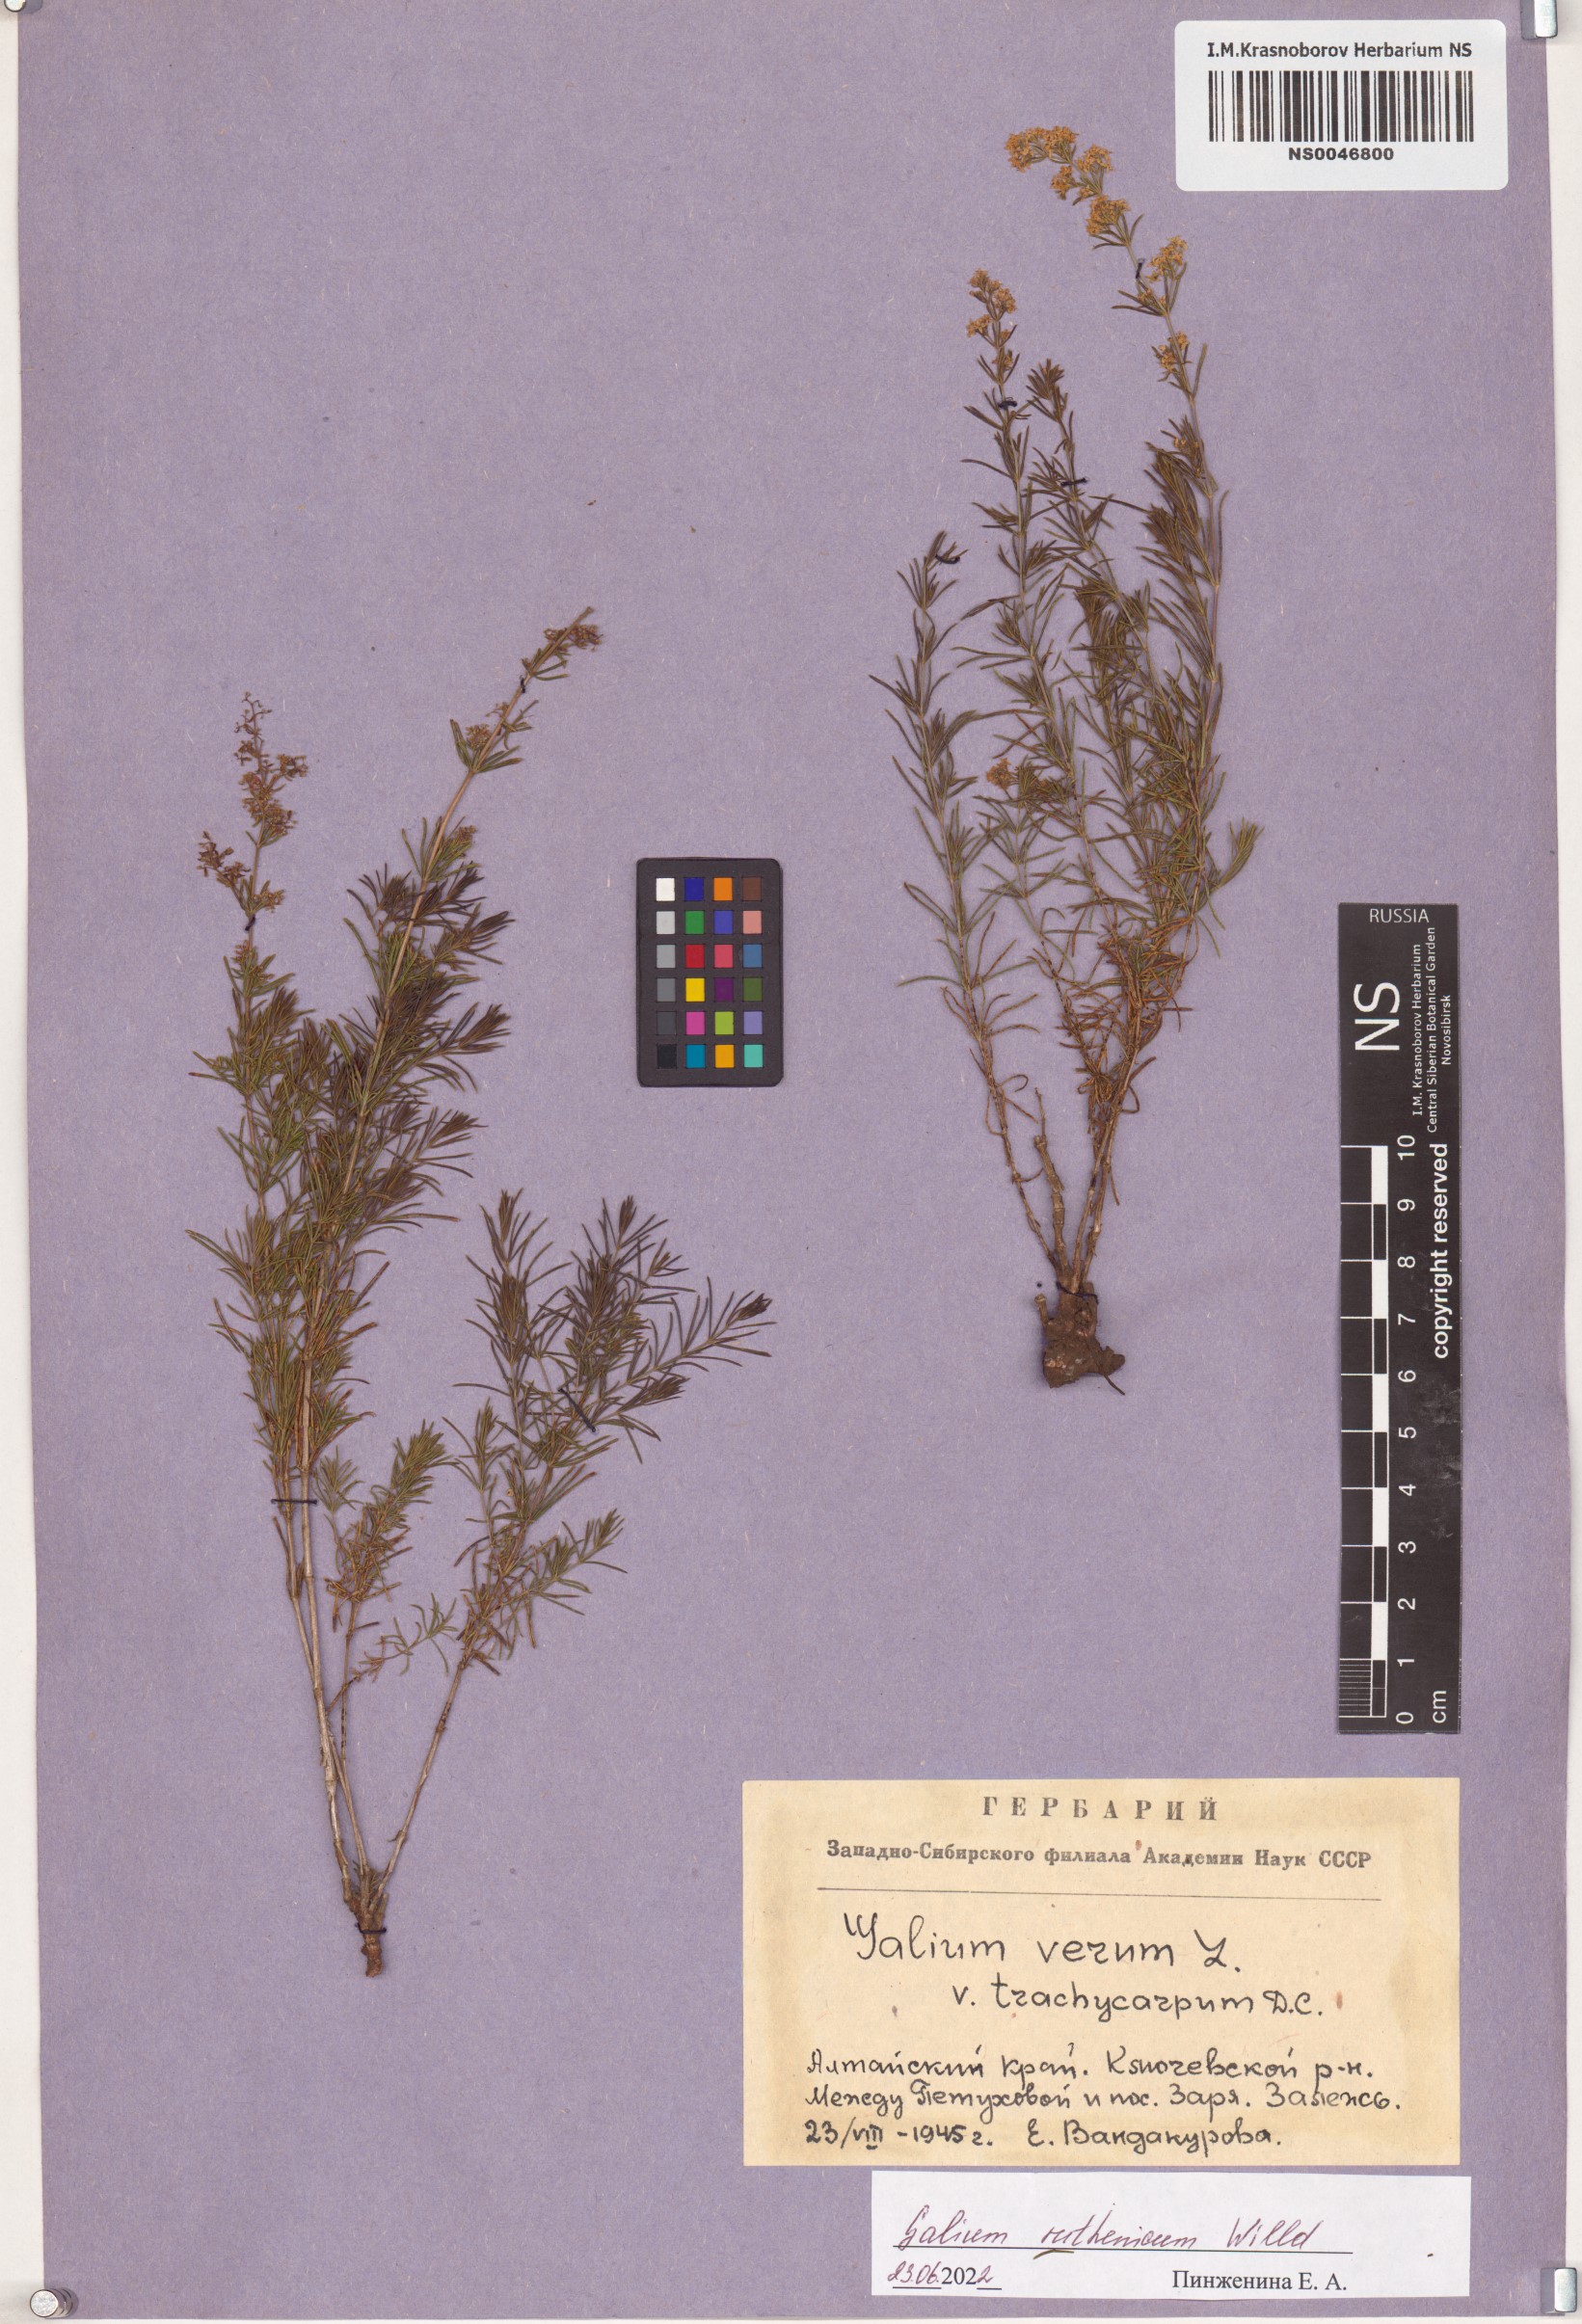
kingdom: Plantae
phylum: Tracheophyta
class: Magnoliopsida
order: Gentianales
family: Rubiaceae
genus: Galium
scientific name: Galium verum
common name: Lady's bedstraw
